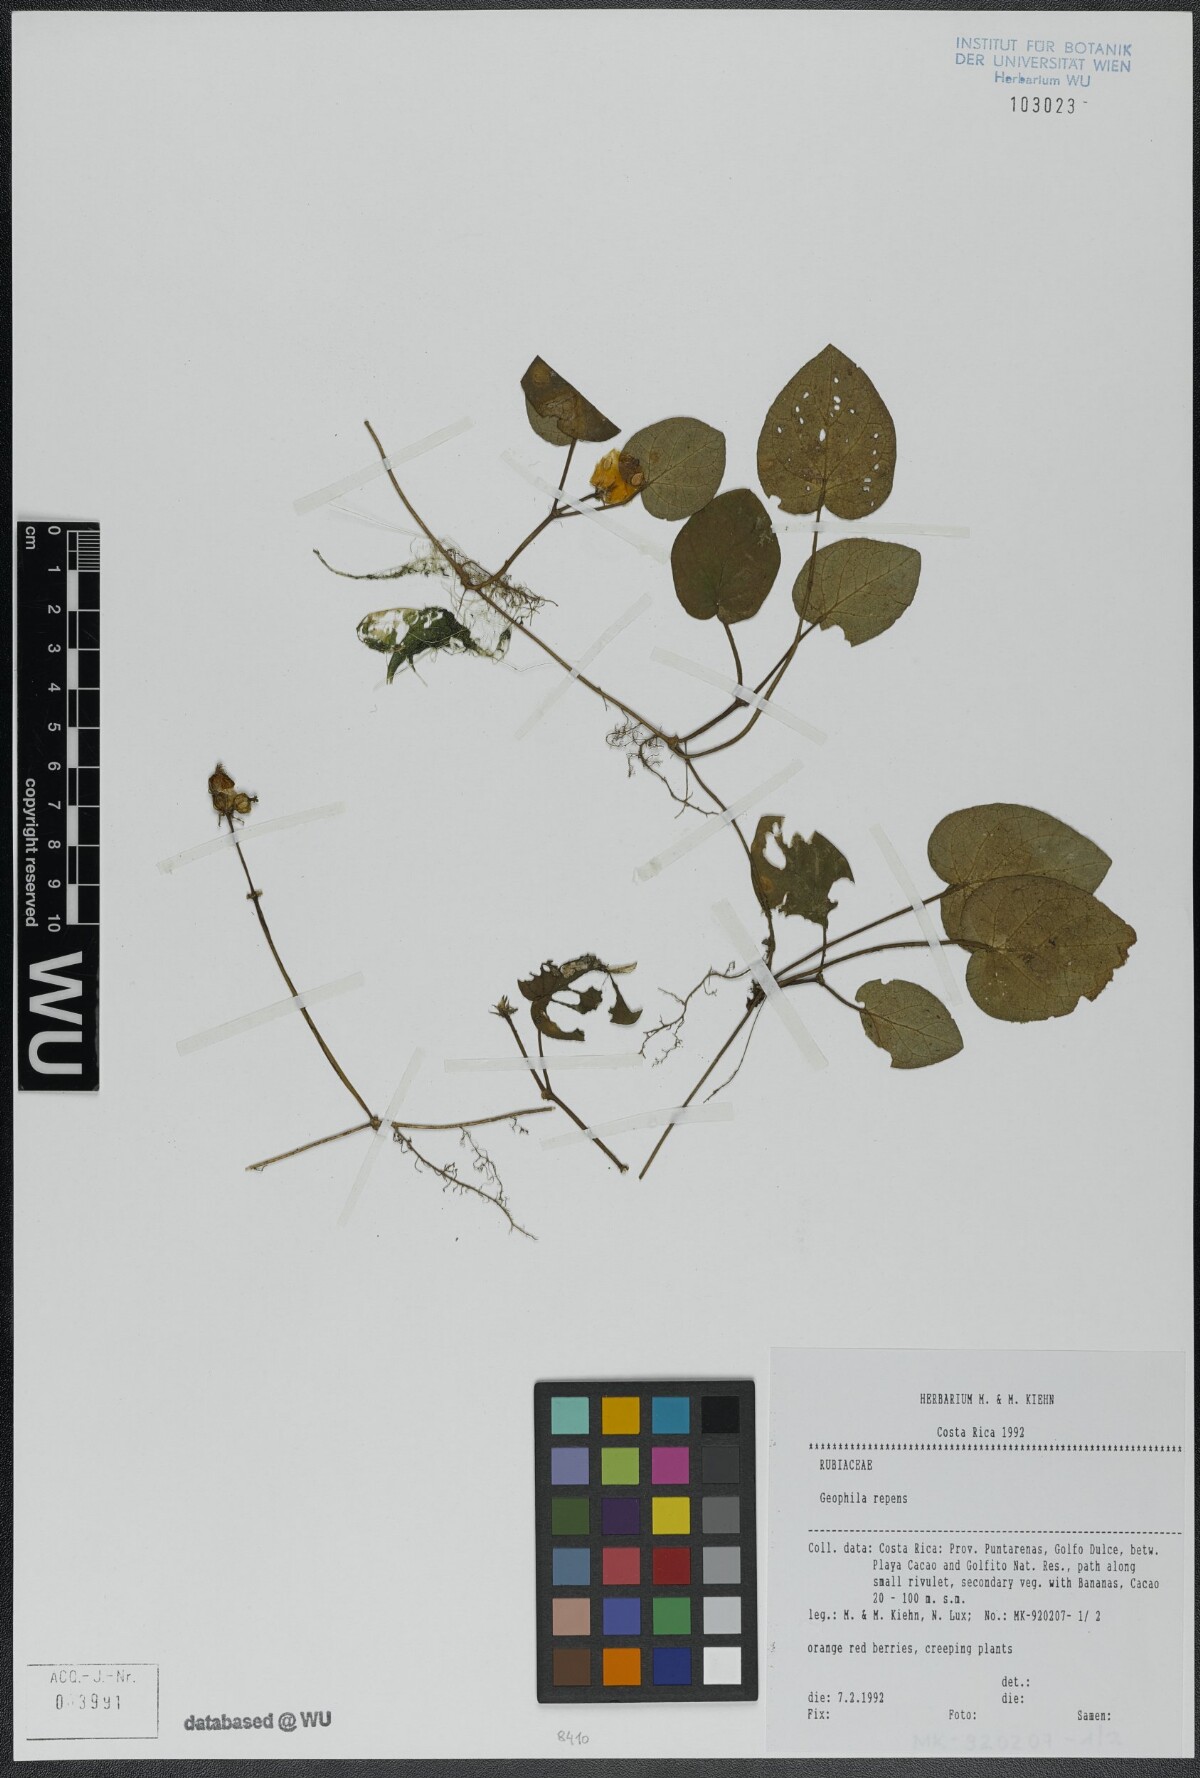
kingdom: Plantae
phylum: Tracheophyta
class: Magnoliopsida
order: Gentianales
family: Rubiaceae
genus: Geophila
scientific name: Geophila repens
